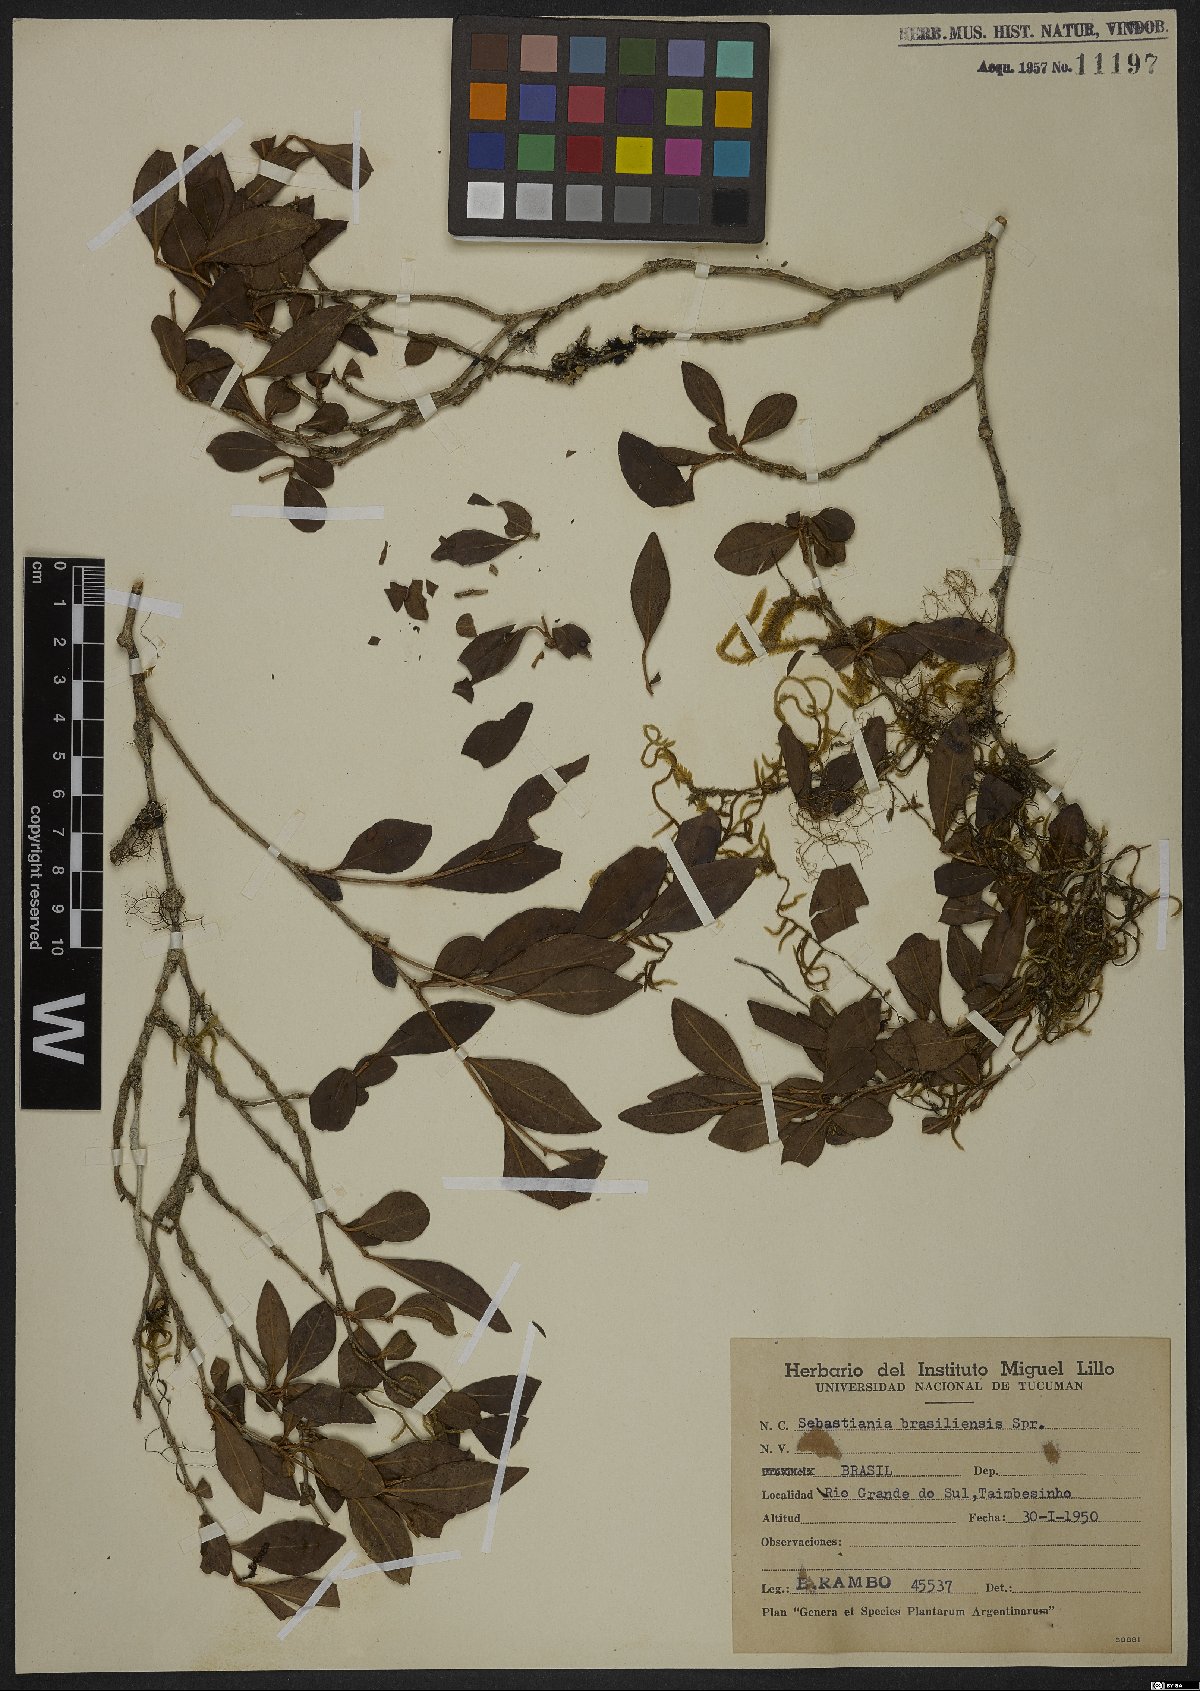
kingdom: Plantae
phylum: Tracheophyta
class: Magnoliopsida
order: Malpighiales
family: Euphorbiaceae
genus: Sebastiania
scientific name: Sebastiania brasiliensis
